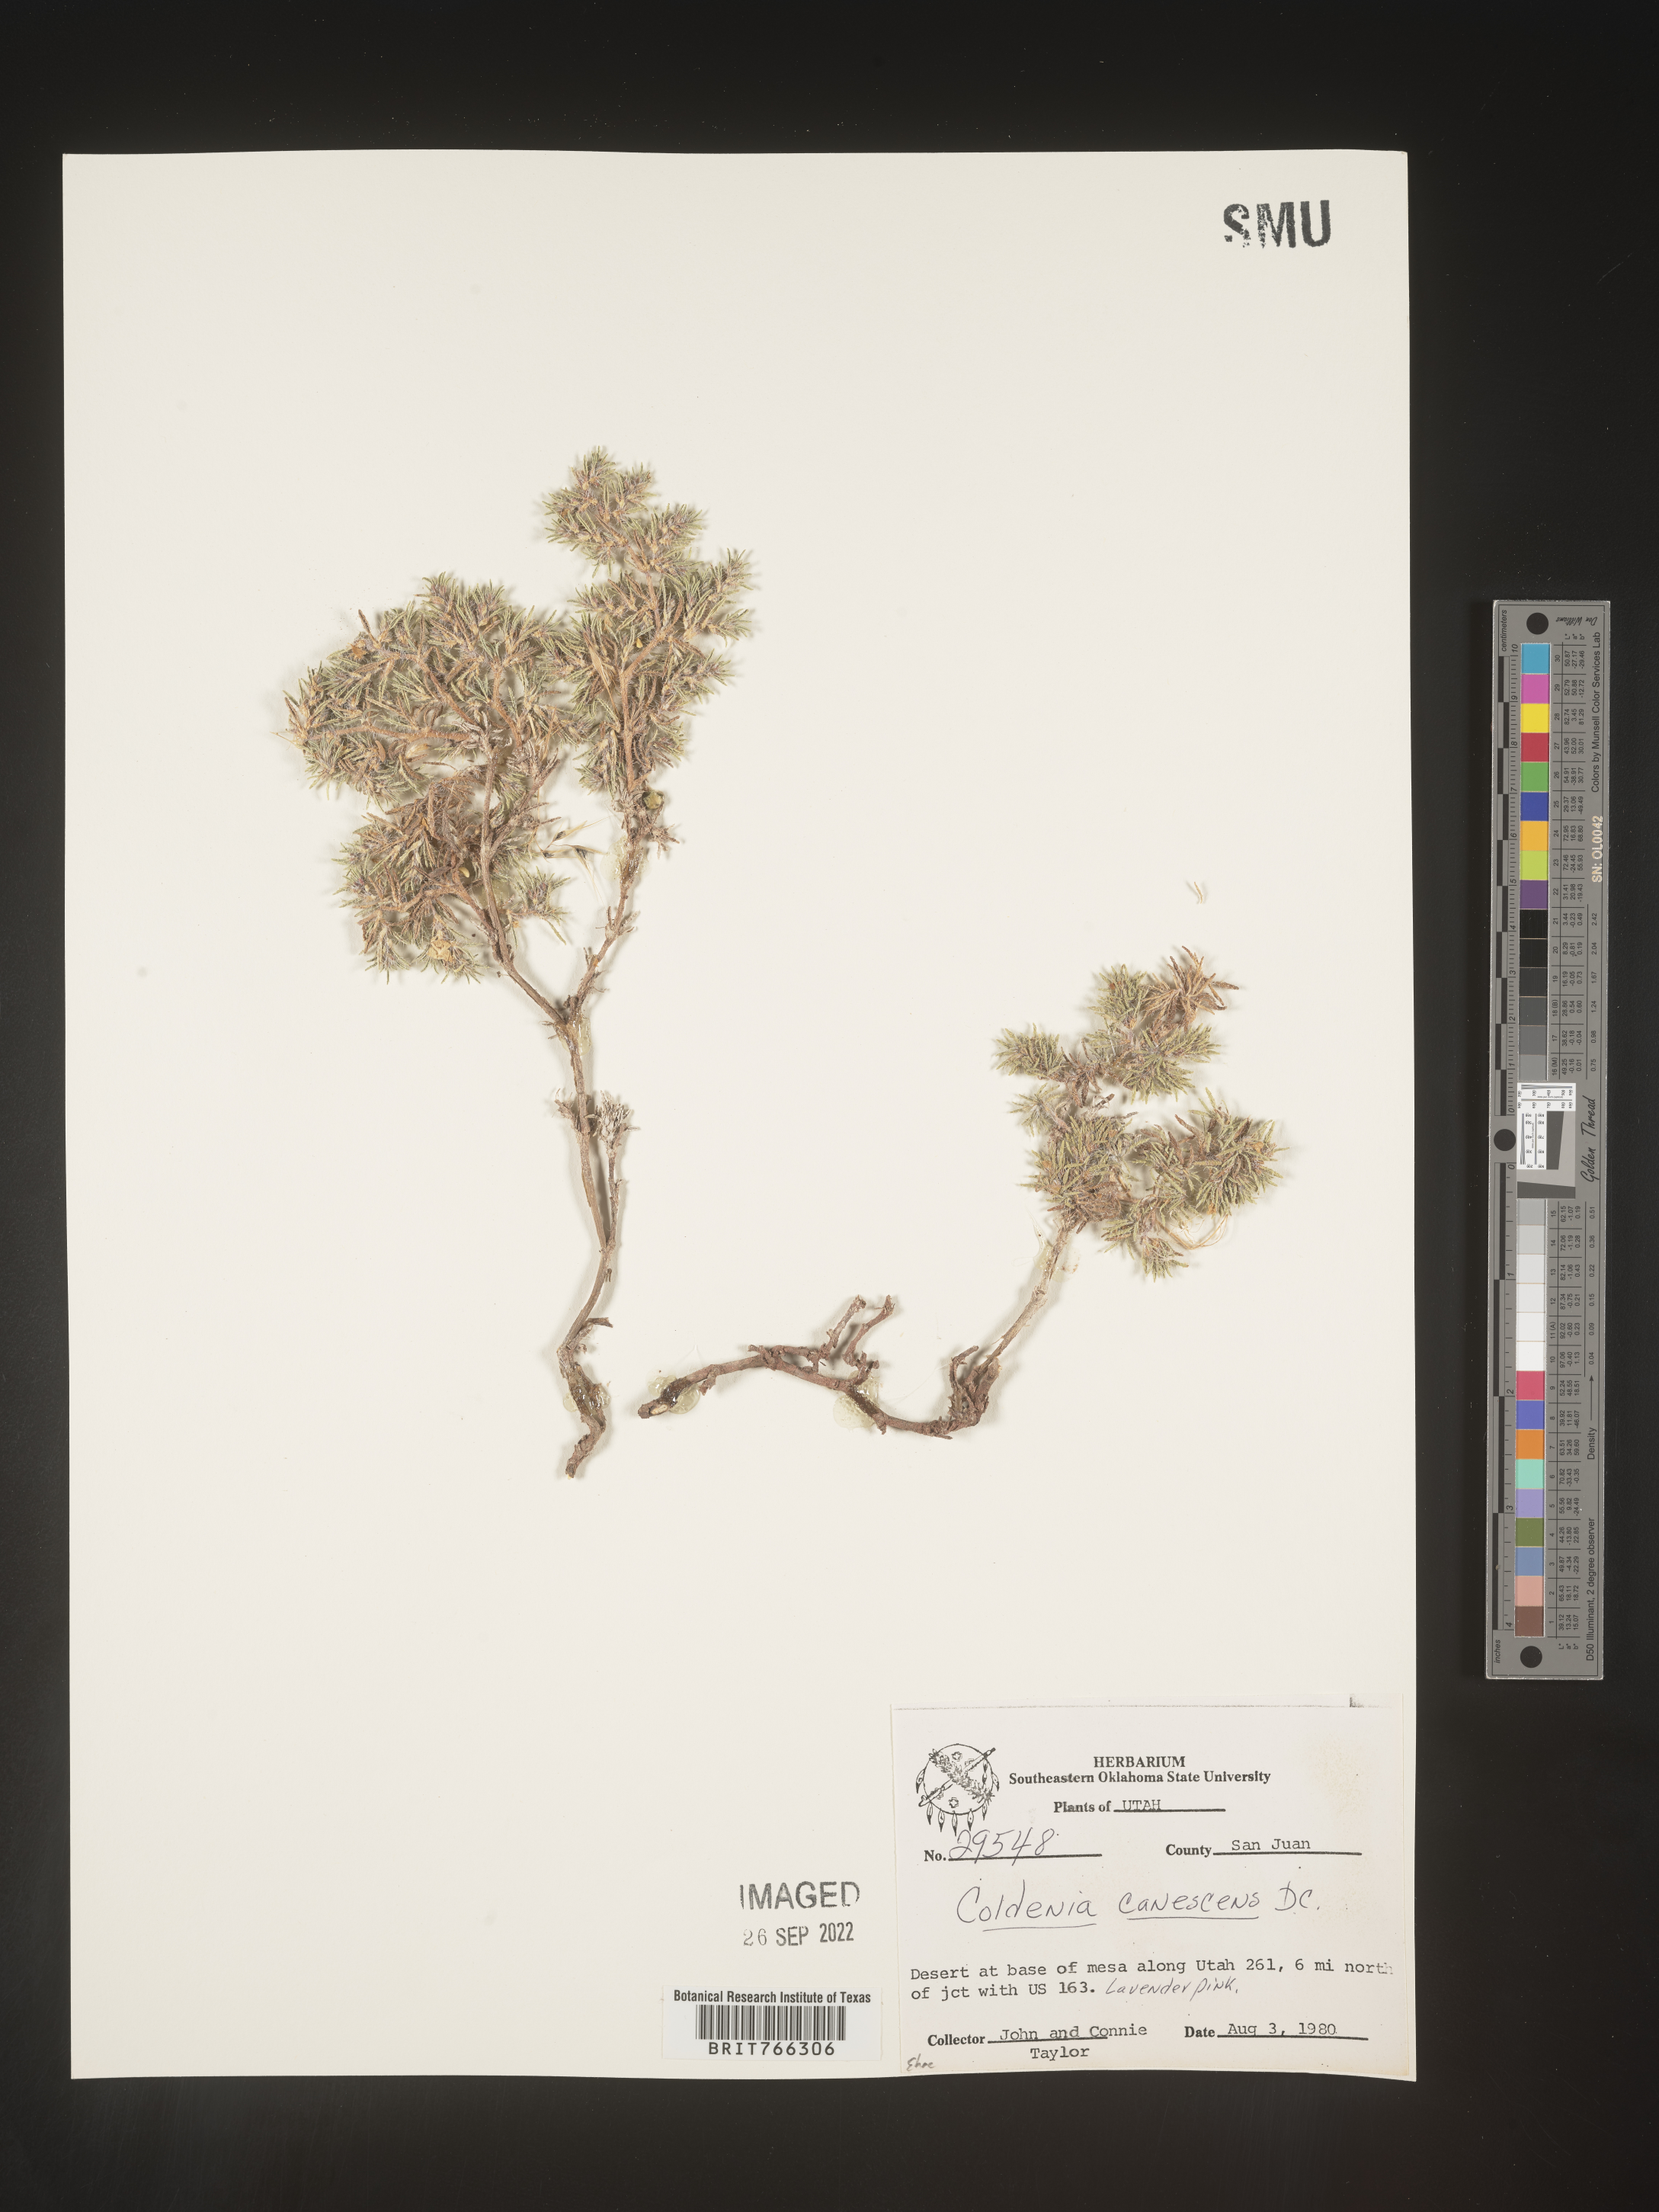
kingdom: Plantae
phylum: Tracheophyta
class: Magnoliopsida
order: Boraginales
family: Coldeniaceae
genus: Coldenia
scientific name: Coldenia
